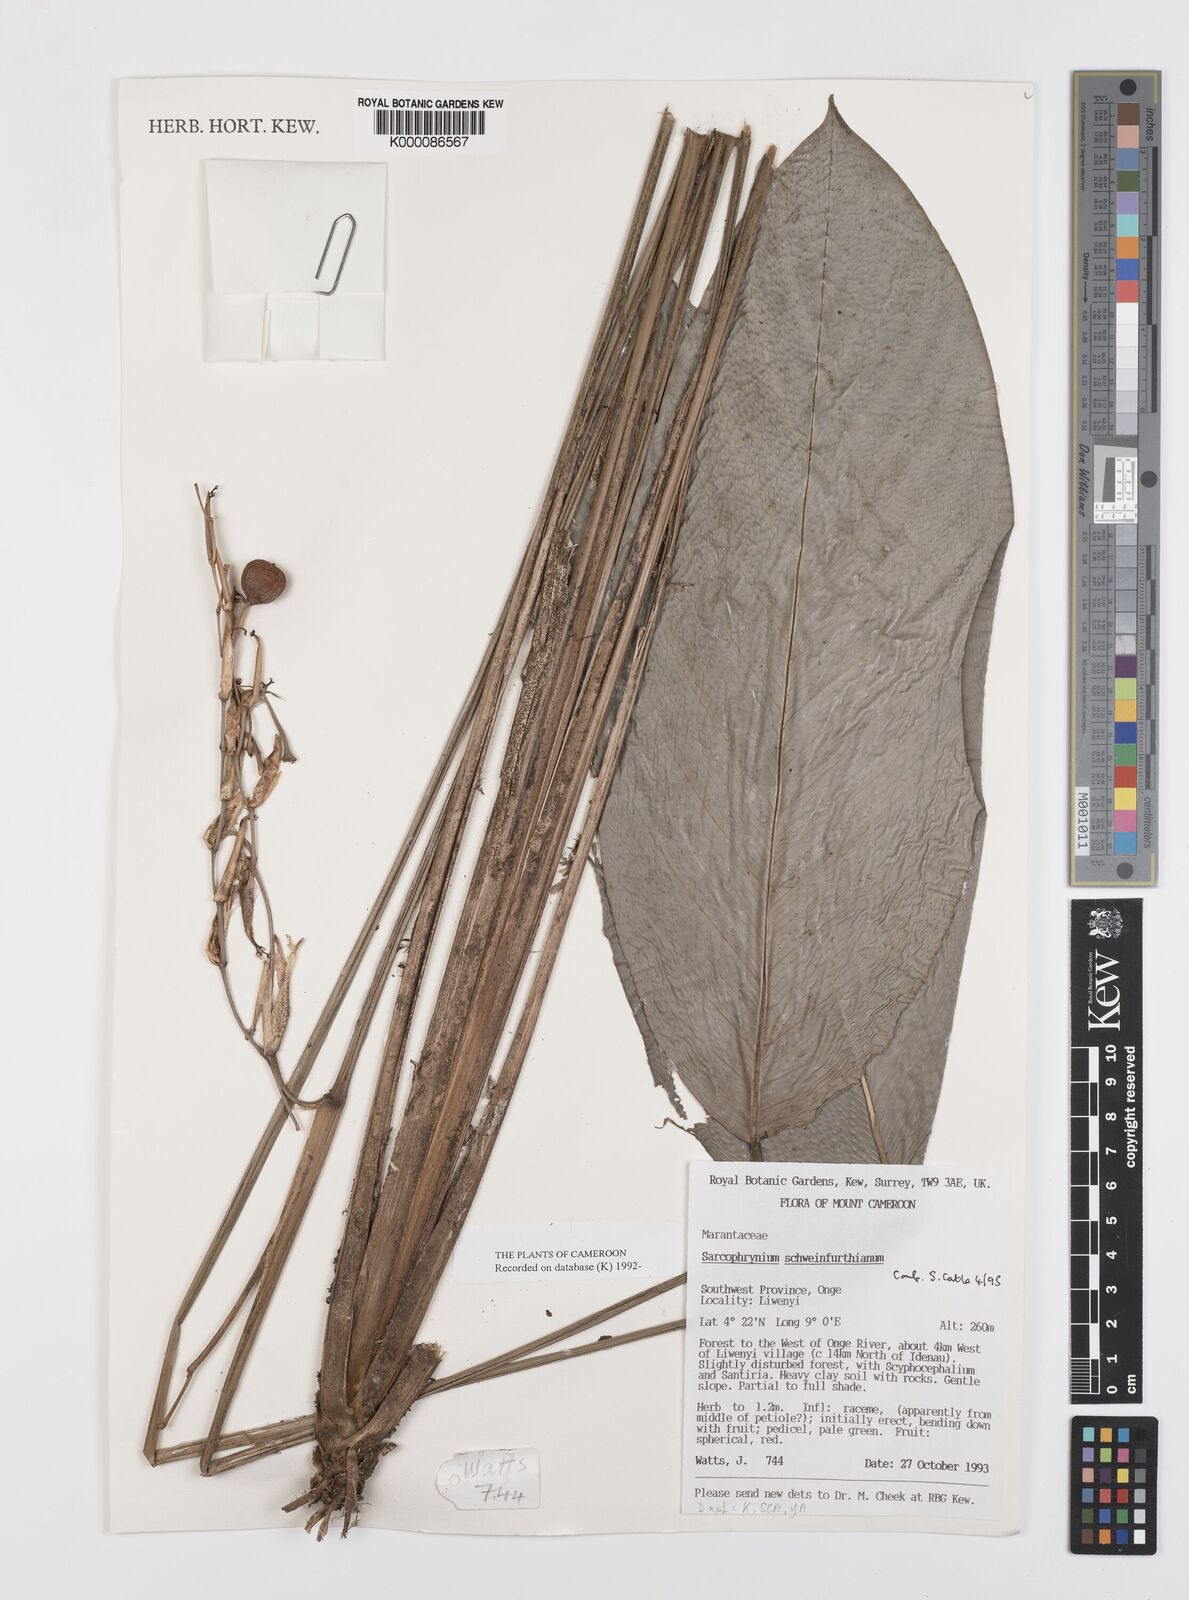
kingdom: Plantae
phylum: Tracheophyta
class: Liliopsida
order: Zingiberales
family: Marantaceae
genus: Sarcophrynium
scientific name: Sarcophrynium schweinfurthianum
